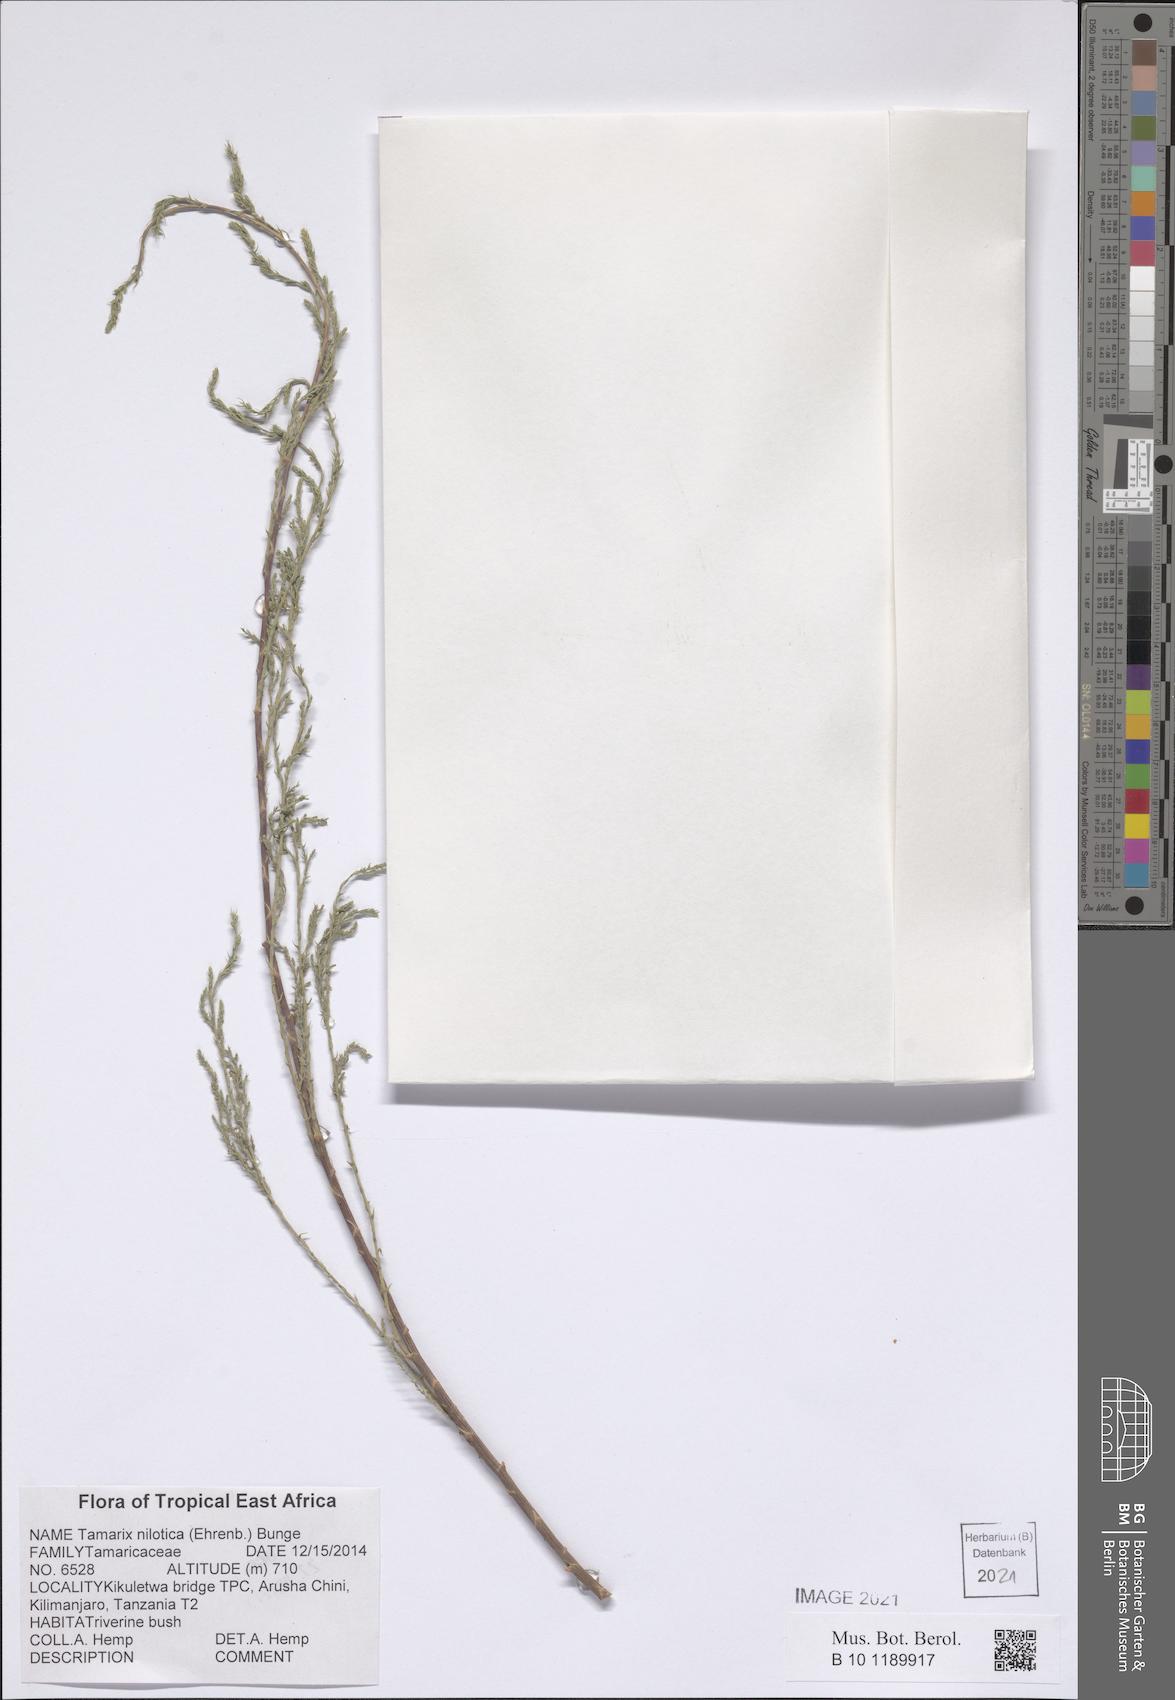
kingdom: Plantae
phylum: Tracheophyta
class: Magnoliopsida
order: Caryophyllales
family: Tamaricaceae
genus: Tamarix
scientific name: Tamarix nilotica
